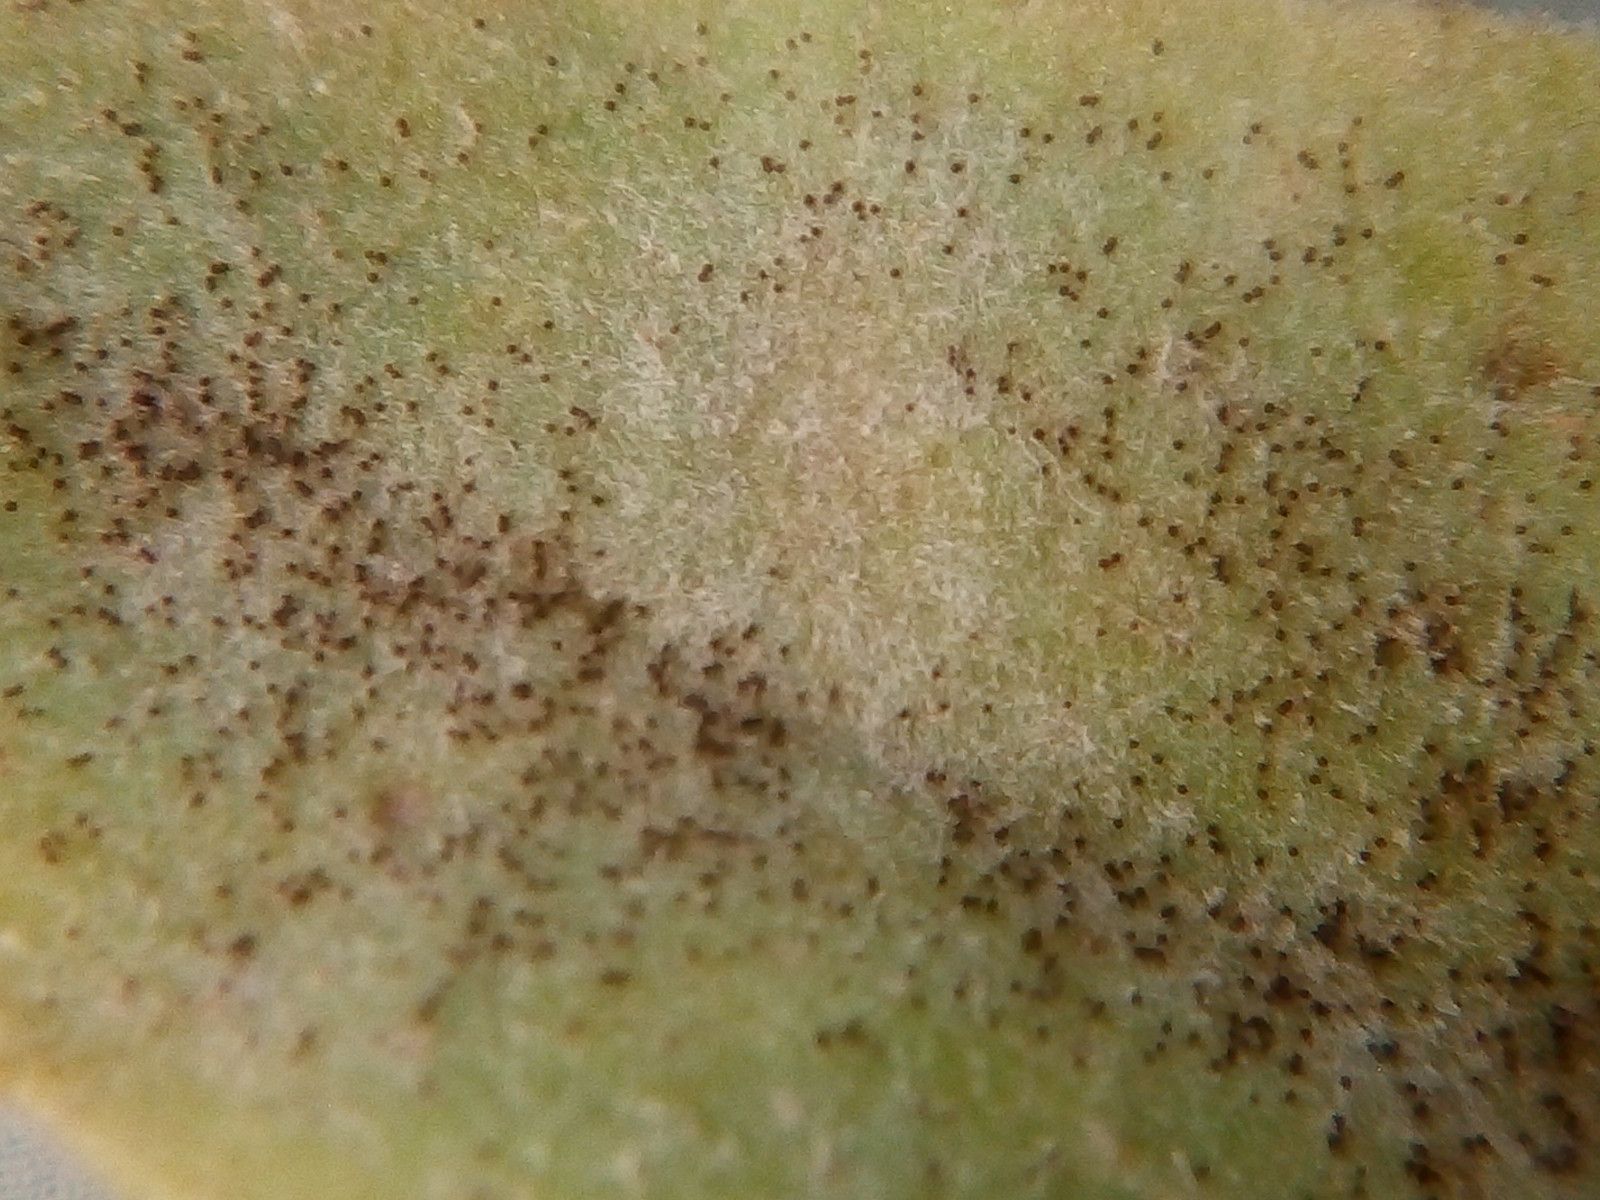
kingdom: Fungi
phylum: Ascomycota
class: Leotiomycetes
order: Helotiales
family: Erysiphaceae
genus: Podosphaera
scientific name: Podosphaera fusca
